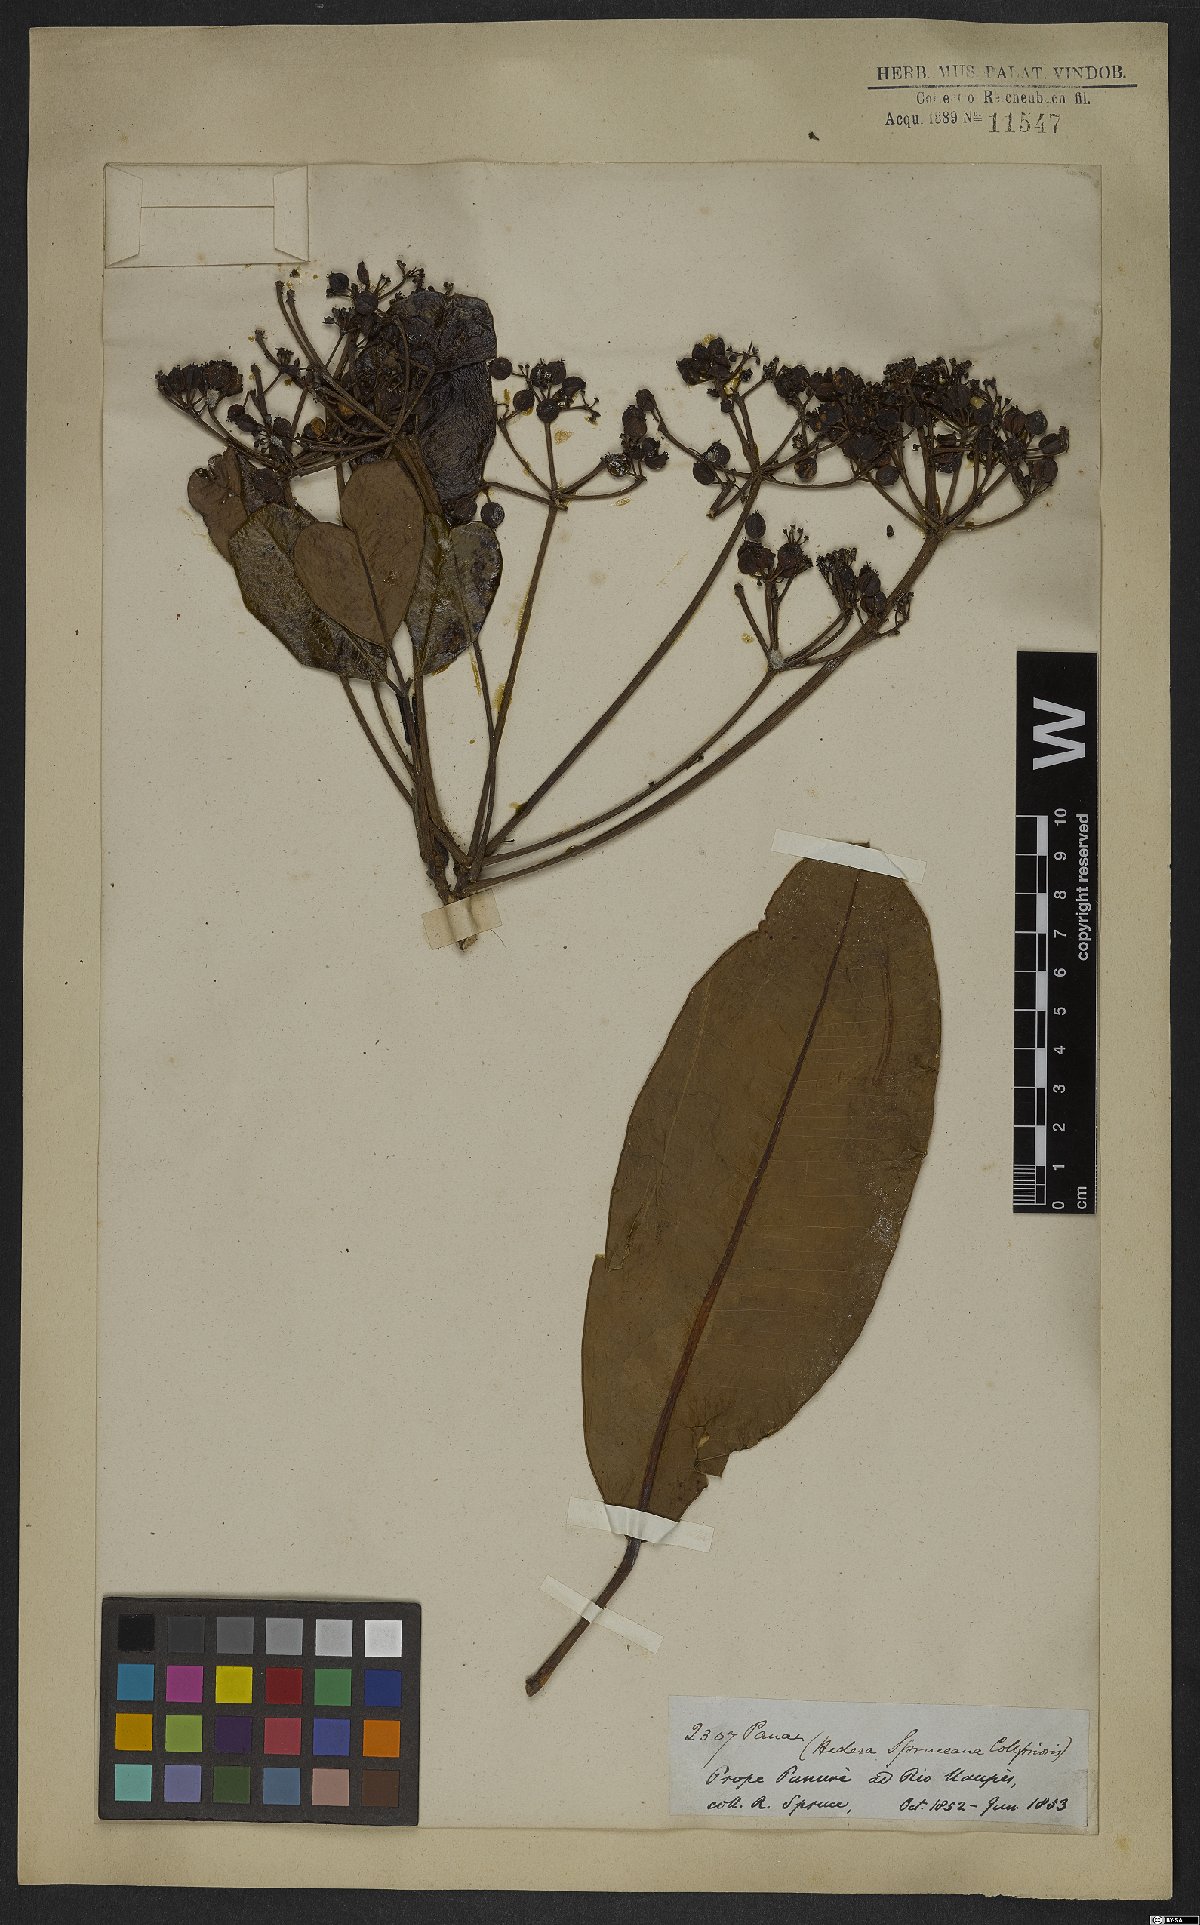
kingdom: Plantae
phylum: Tracheophyta
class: Magnoliopsida
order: Apiales
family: Araliaceae
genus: Crepinella
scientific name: Crepinella spruceana
